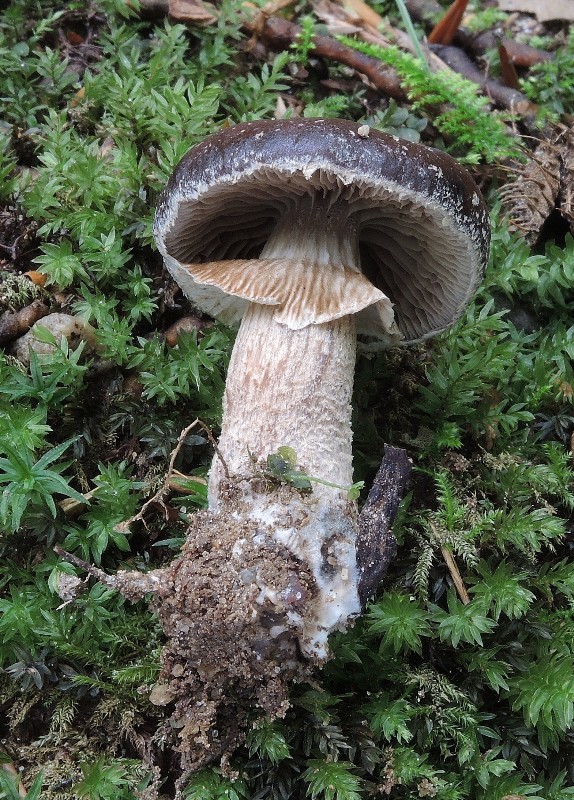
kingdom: Fungi
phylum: Basidiomycota
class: Agaricomycetes
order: Agaricales
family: Tubariaceae
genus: Cyclocybe
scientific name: Cyclocybe erebia
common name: mørk agerhat
